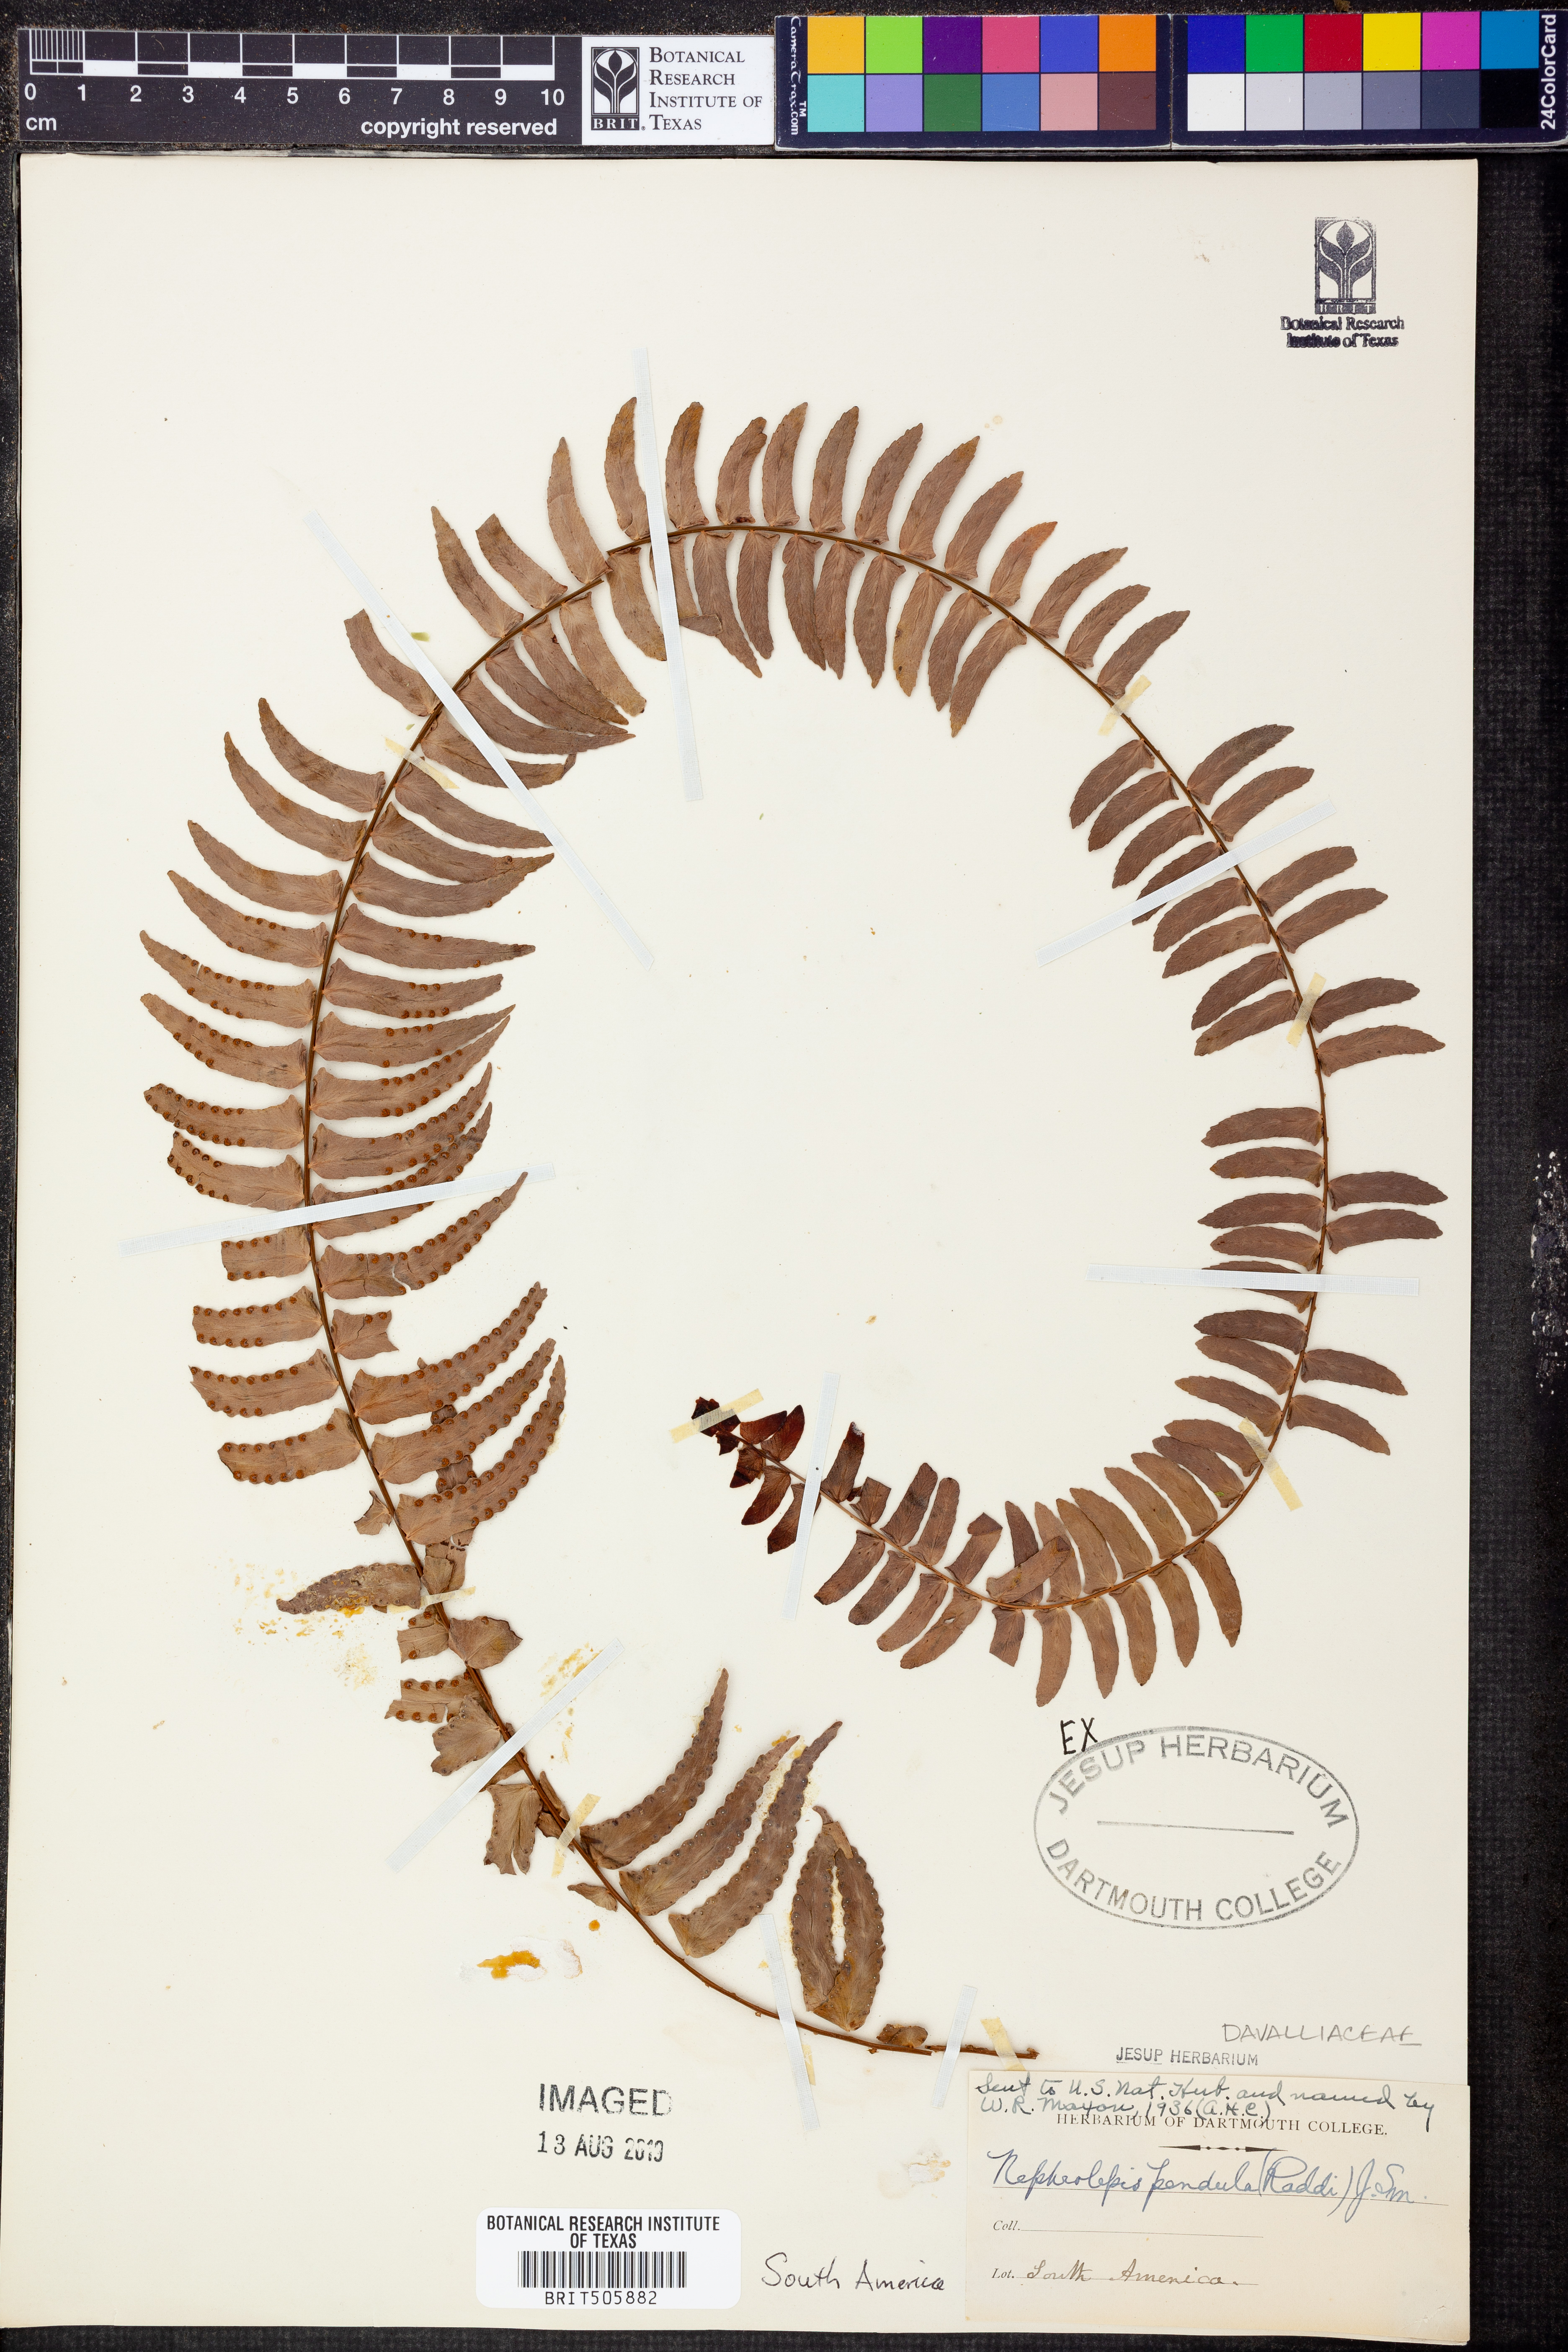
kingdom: Plantae
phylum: Tracheophyta
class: Polypodiopsida
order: Polypodiales
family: Nephrolepidaceae
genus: Nephrolepis
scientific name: Nephrolepis pendula
